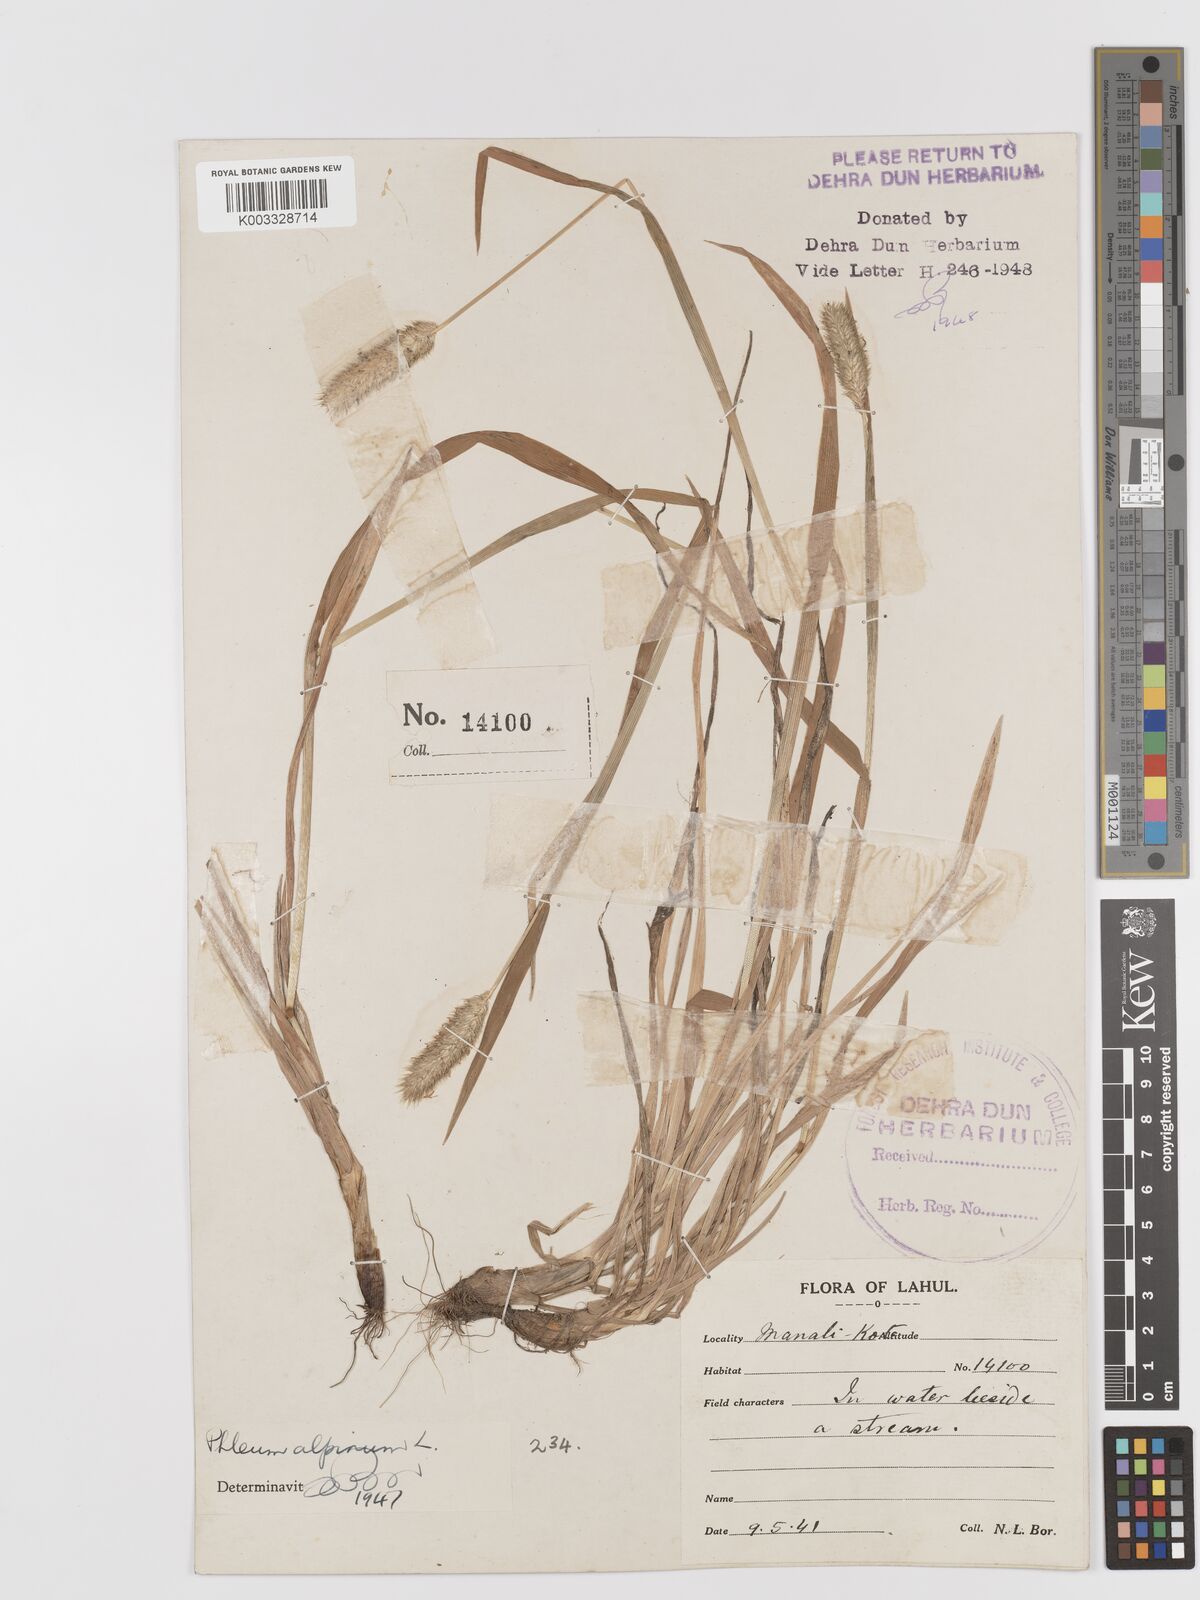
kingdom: Plantae
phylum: Tracheophyta
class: Liliopsida
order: Poales
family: Poaceae
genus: Phleum
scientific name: Phleum alpinum
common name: Alpine cat's-tail
